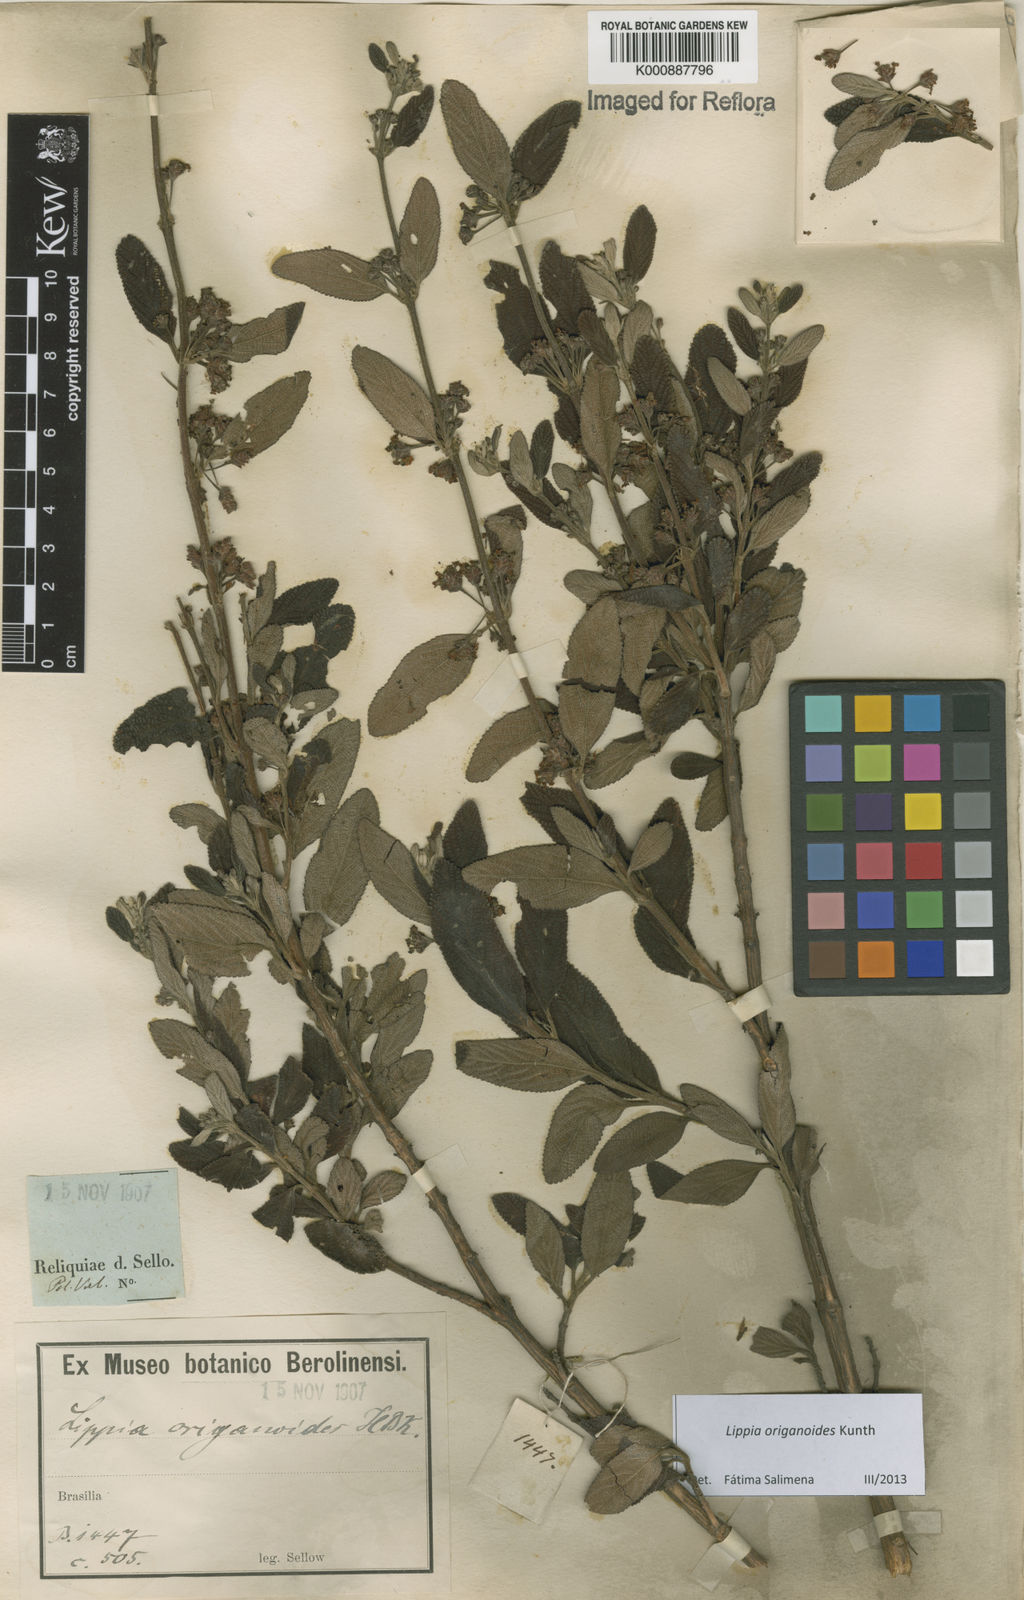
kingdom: Plantae
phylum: Tracheophyta
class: Magnoliopsida
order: Lamiales
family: Verbenaceae
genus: Lippia
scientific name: Lippia origanoides
